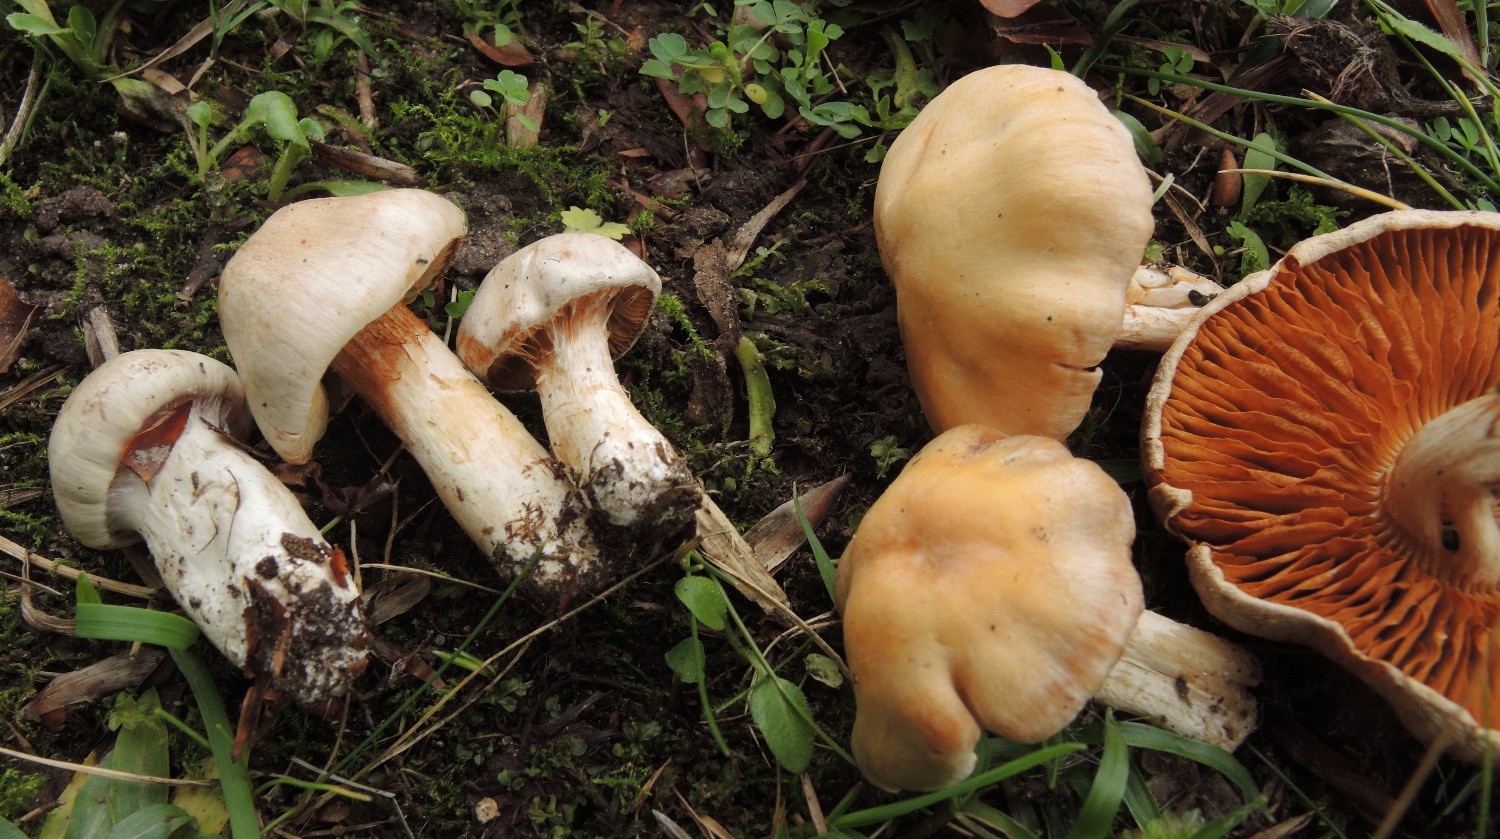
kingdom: Fungi
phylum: Basidiomycota
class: Agaricomycetes
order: Agaricales
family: Cortinariaceae
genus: Thaxterogaster
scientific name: Thaxterogaster leucoluteolus
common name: isabella slørhat
